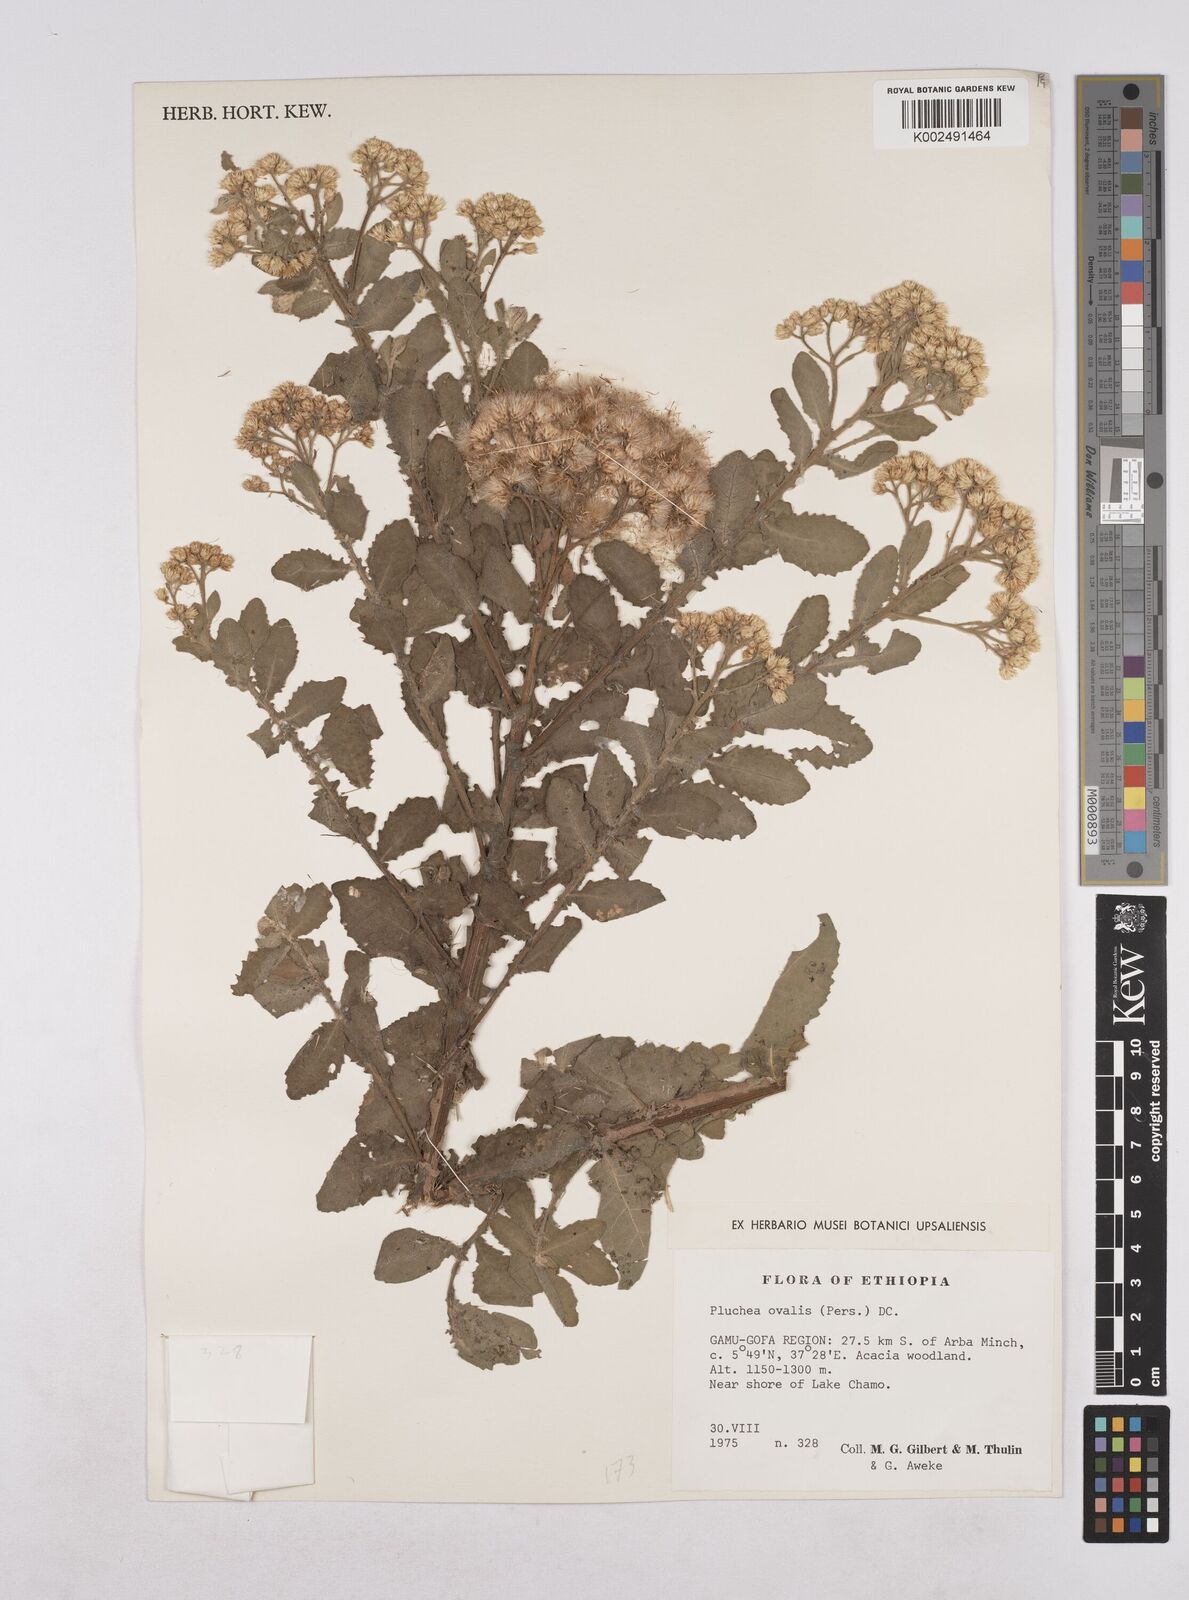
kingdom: Plantae
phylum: Tracheophyta
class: Magnoliopsida
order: Asterales
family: Asteraceae
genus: Pluchea
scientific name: Pluchea ovalis
